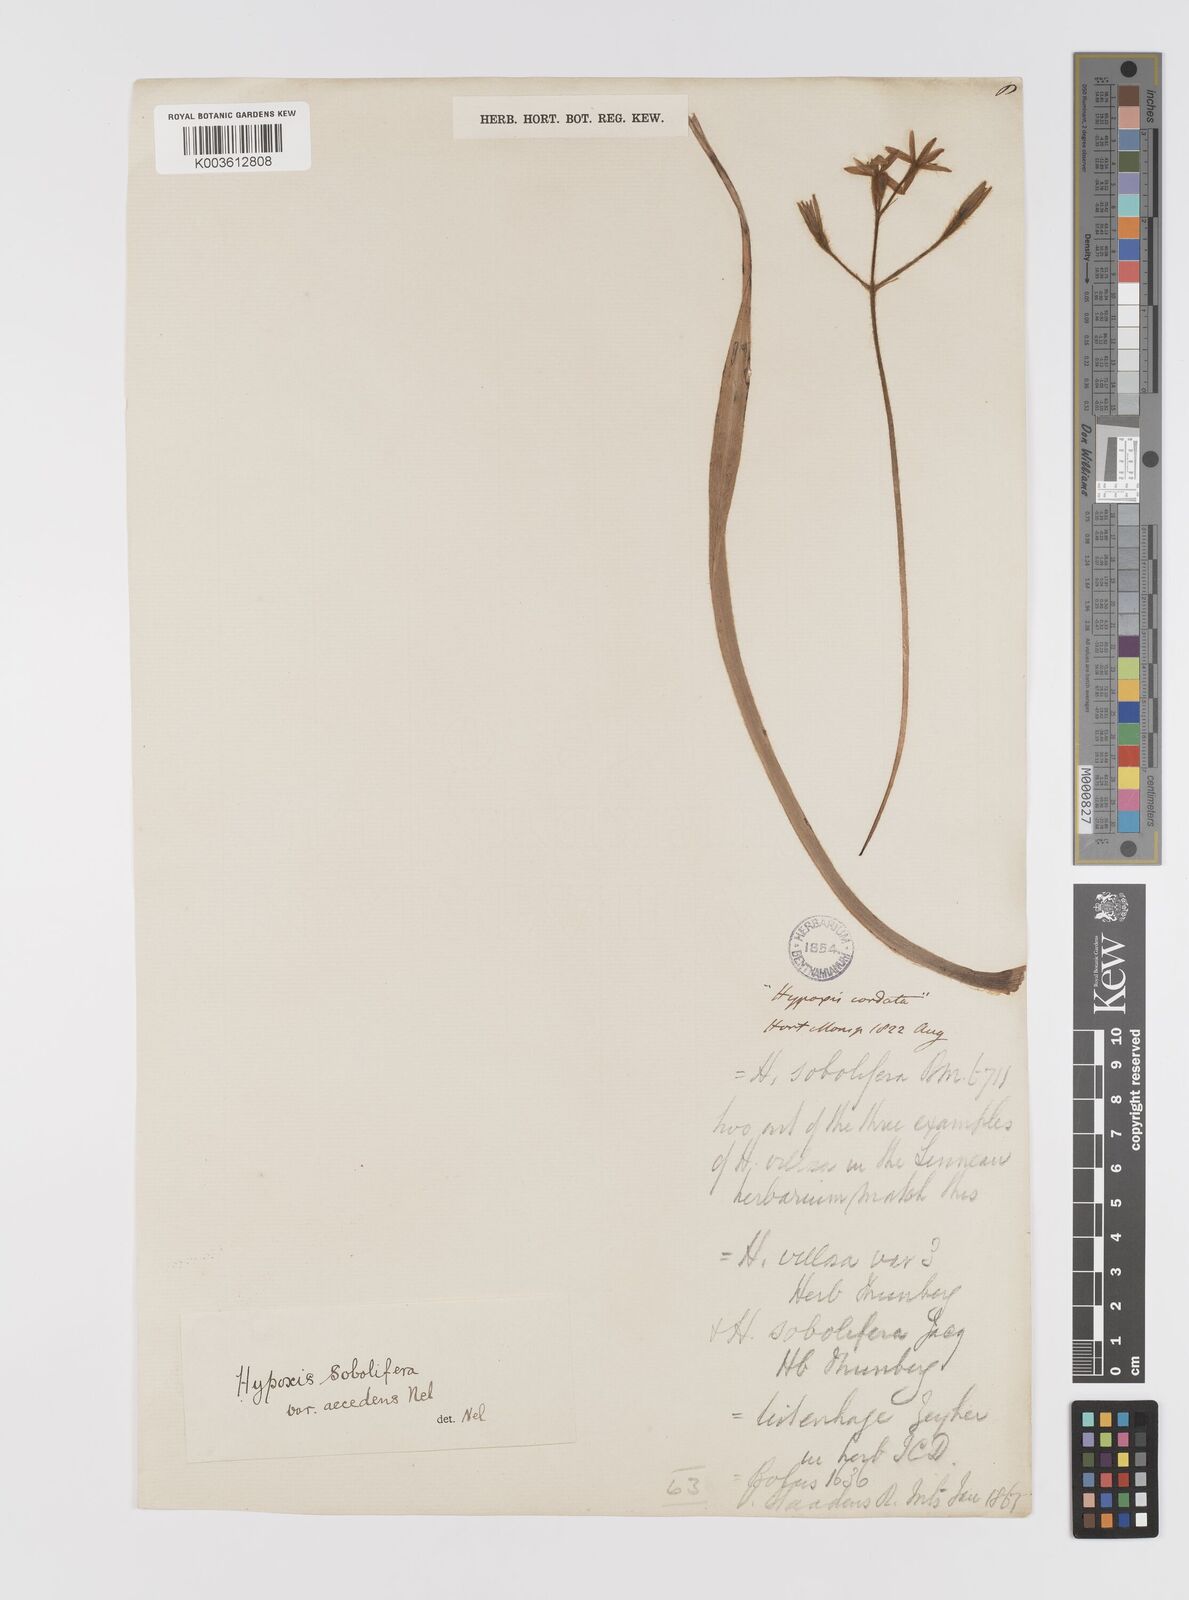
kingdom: Plantae
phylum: Tracheophyta
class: Liliopsida
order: Asparagales
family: Hypoxidaceae
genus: Hypoxis
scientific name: Hypoxis sobolifera
